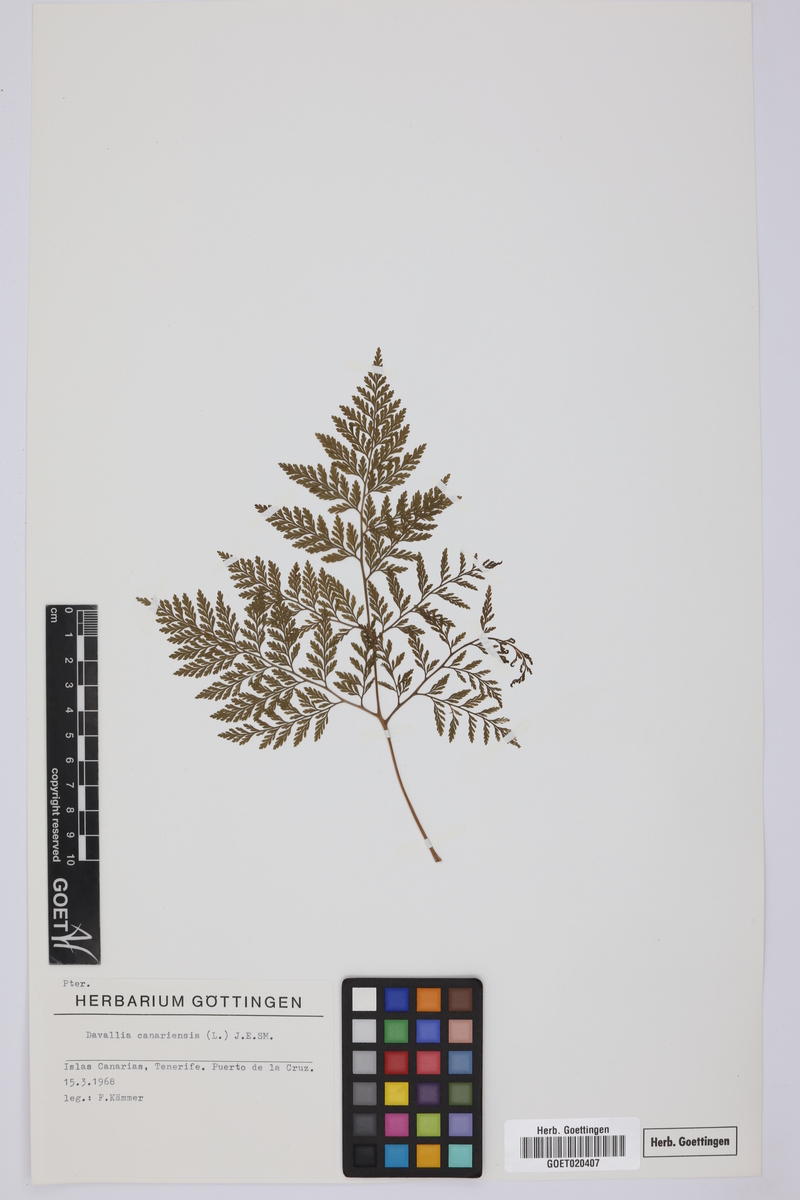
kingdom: Plantae
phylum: Tracheophyta
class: Polypodiopsida
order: Polypodiales
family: Davalliaceae
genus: Davallia
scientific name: Davallia canariensis
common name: Hare's-foot fern
